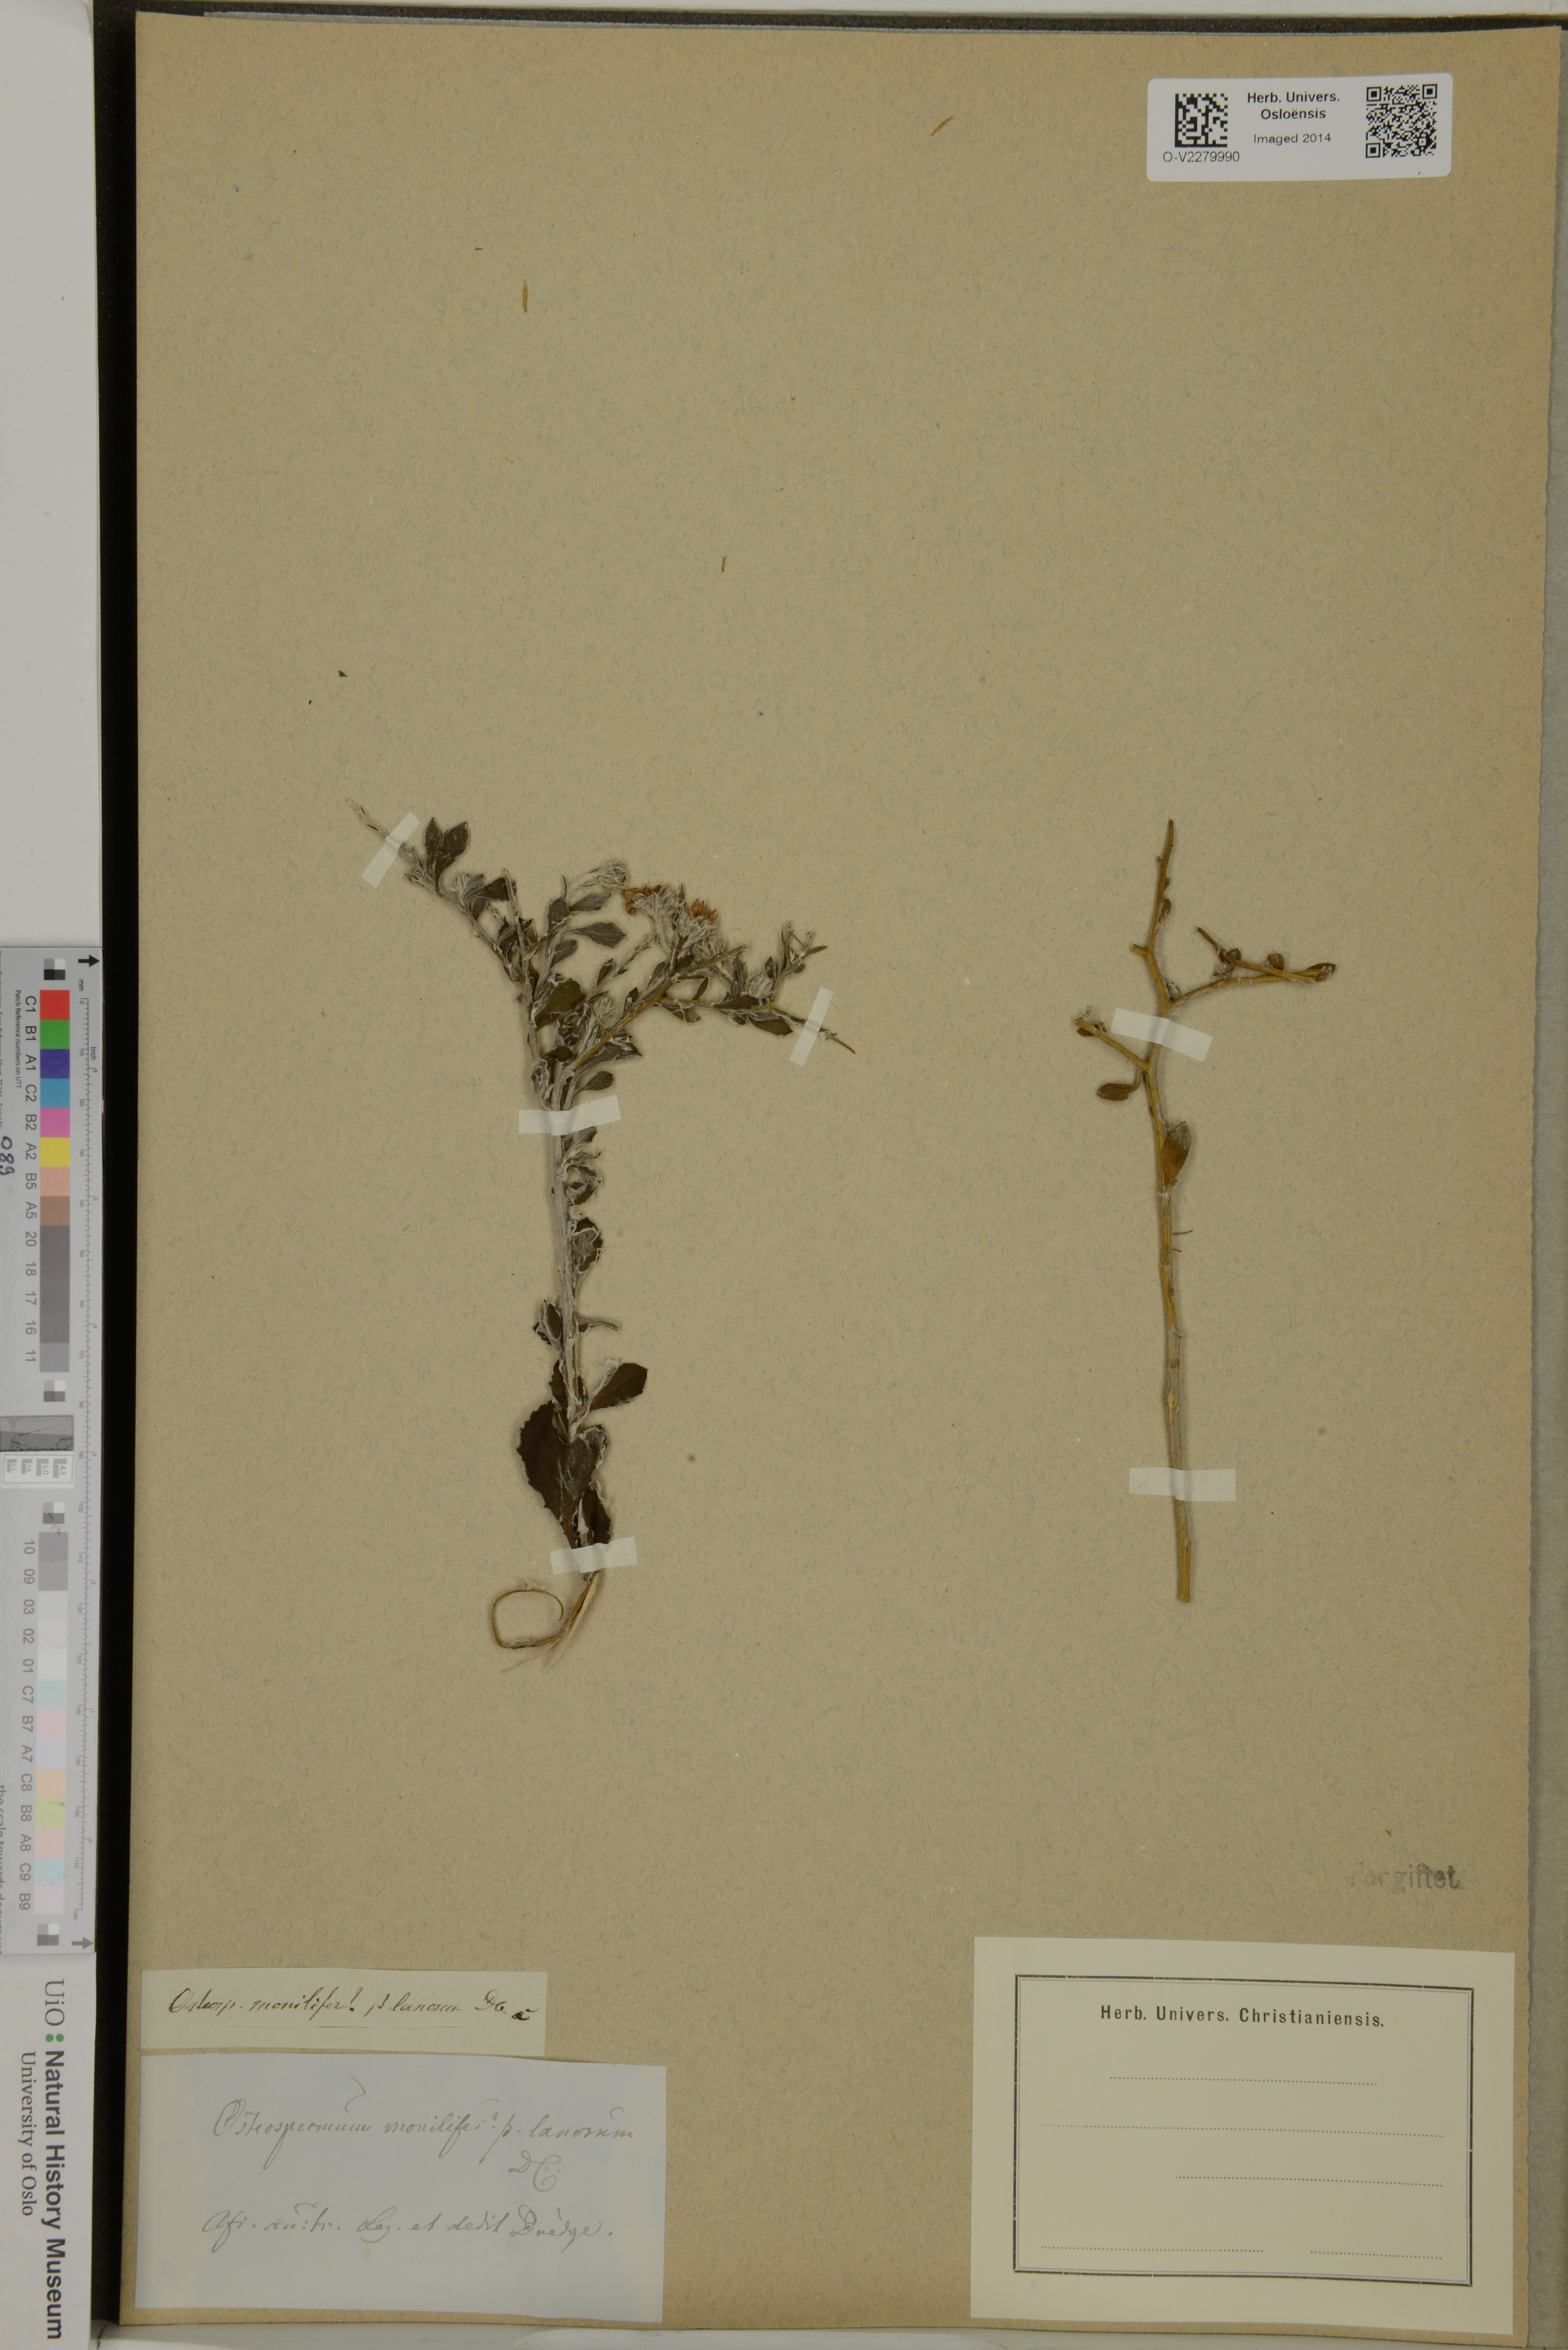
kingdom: Plantae
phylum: Tracheophyta
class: Magnoliopsida
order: Asterales
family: Asteraceae
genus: Osteospermum
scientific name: Osteospermum moniliferum
